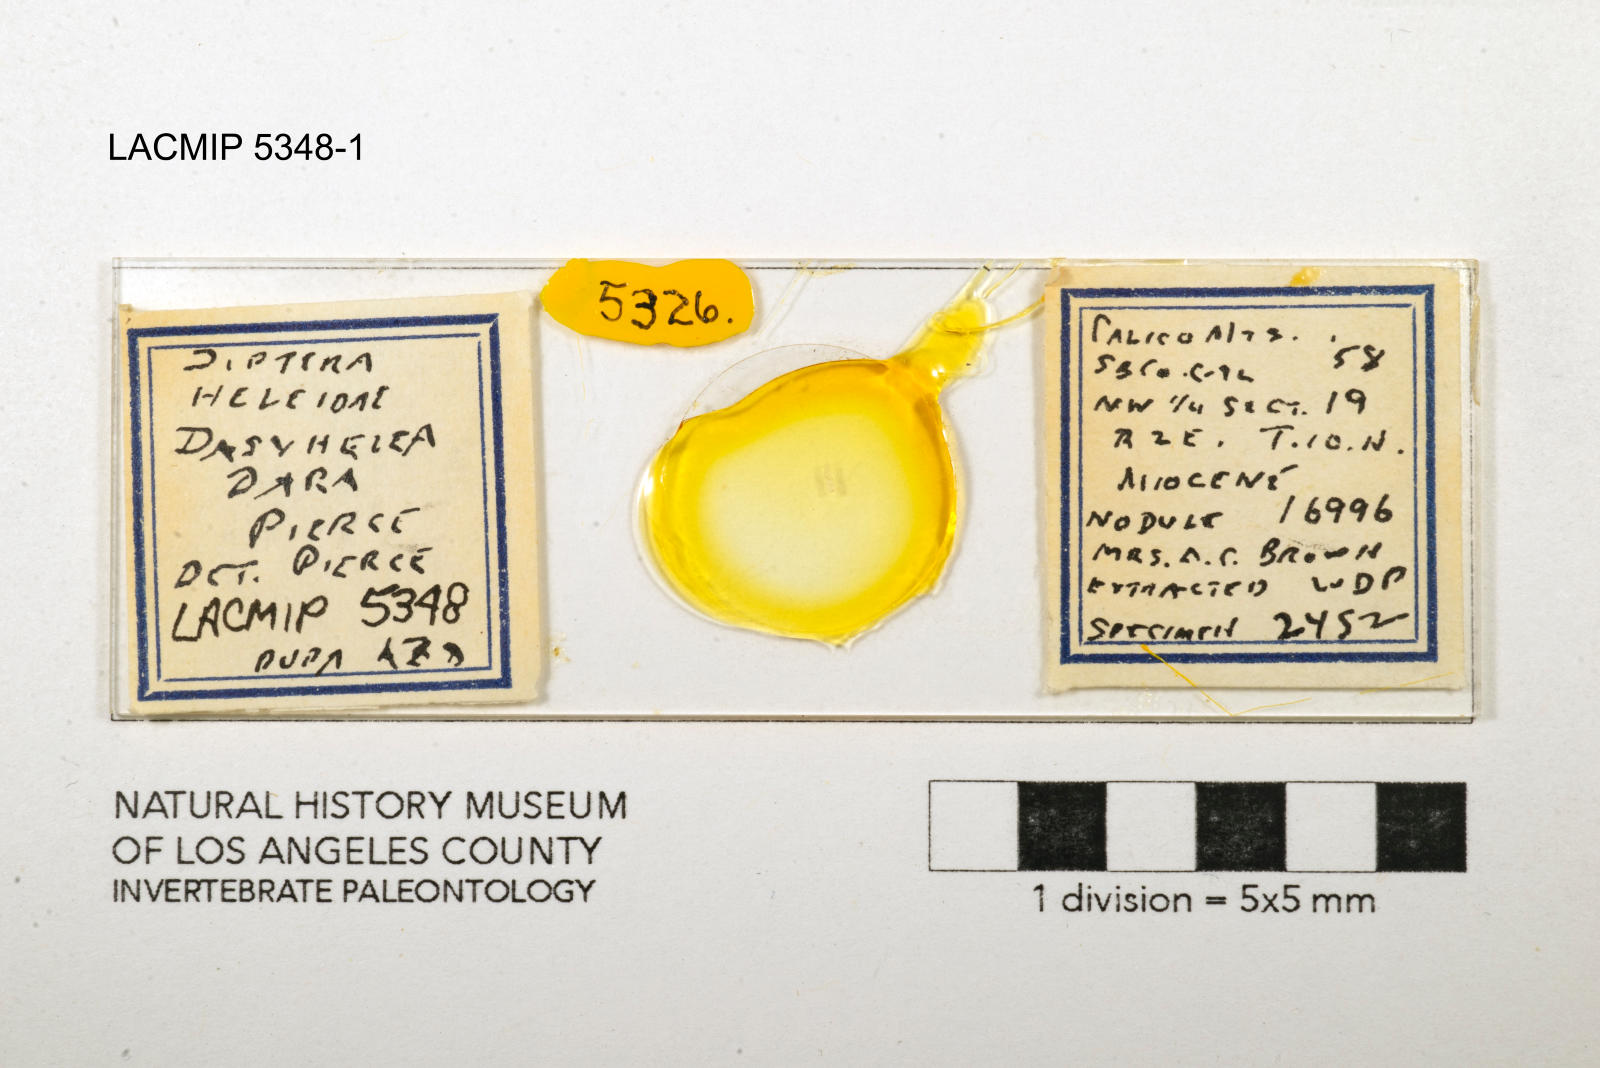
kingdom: Animalia
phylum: Arthropoda
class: Insecta
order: Diptera
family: Ceratopogonidae
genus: Dasyhelea
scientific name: Dasyhelea dara
